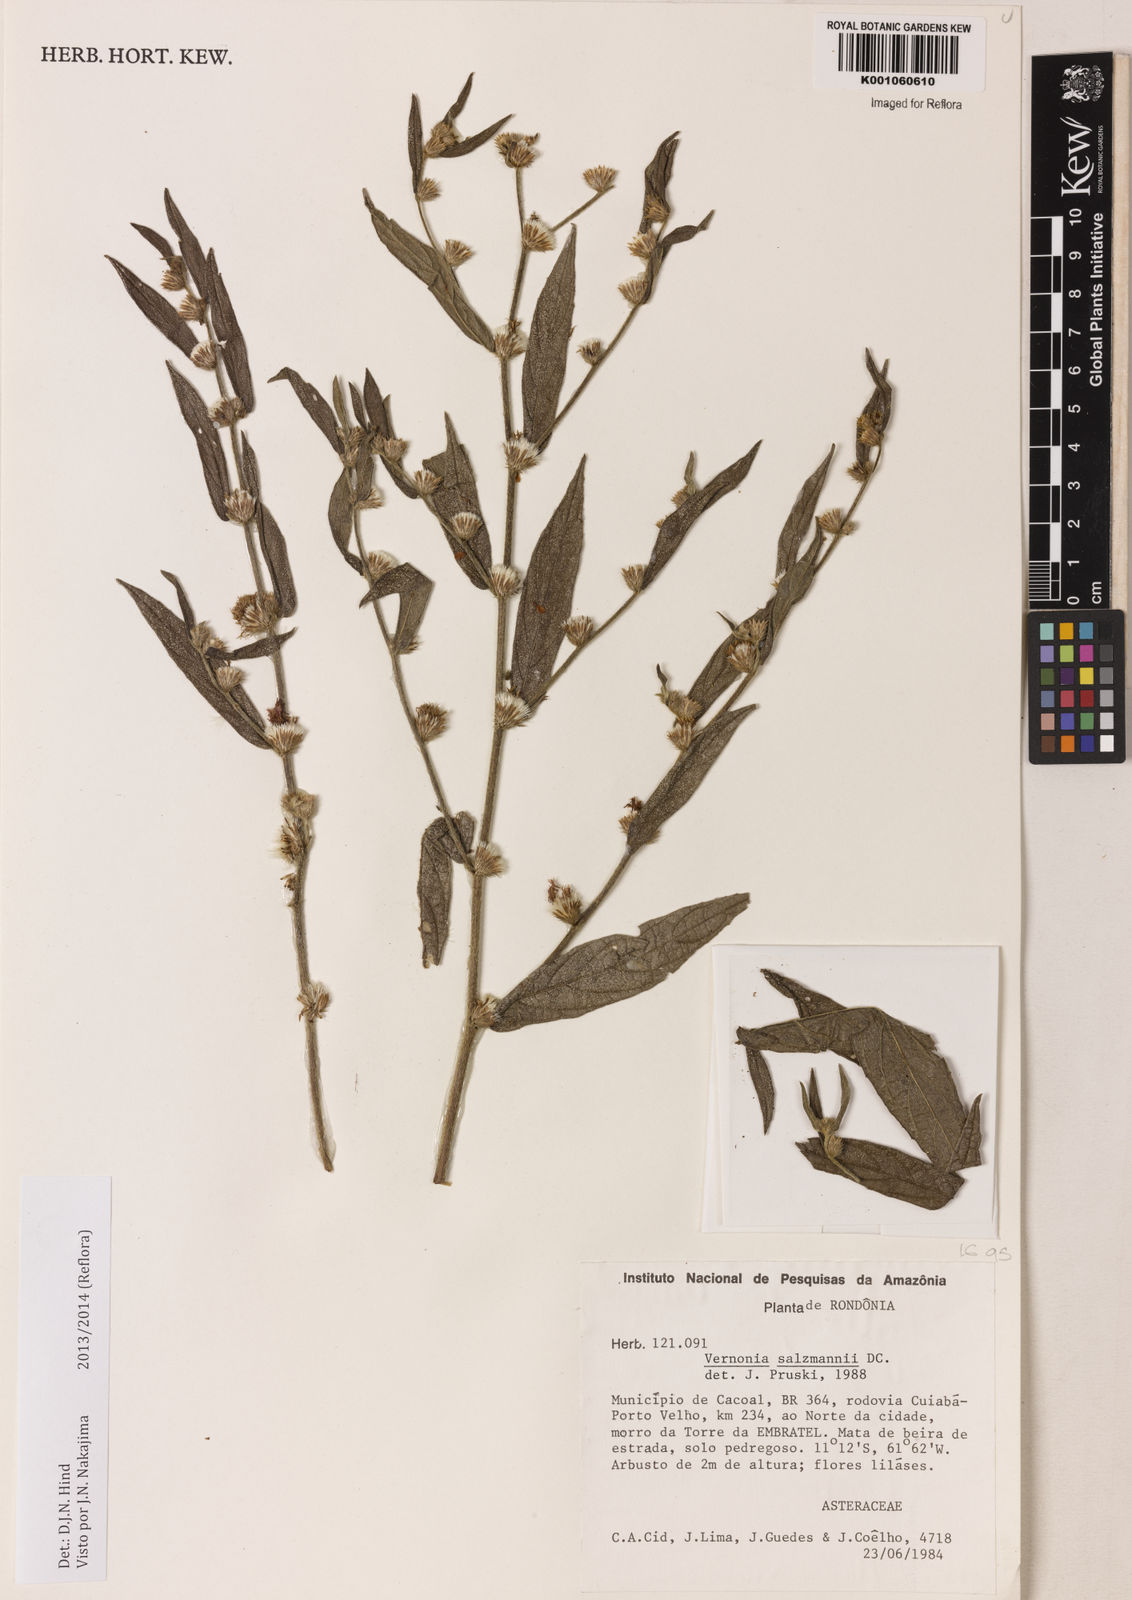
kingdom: Plantae
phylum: Tracheophyta
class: Magnoliopsida
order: Asterales
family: Asteraceae
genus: Lepidaploa
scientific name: Lepidaploa salzmannii
